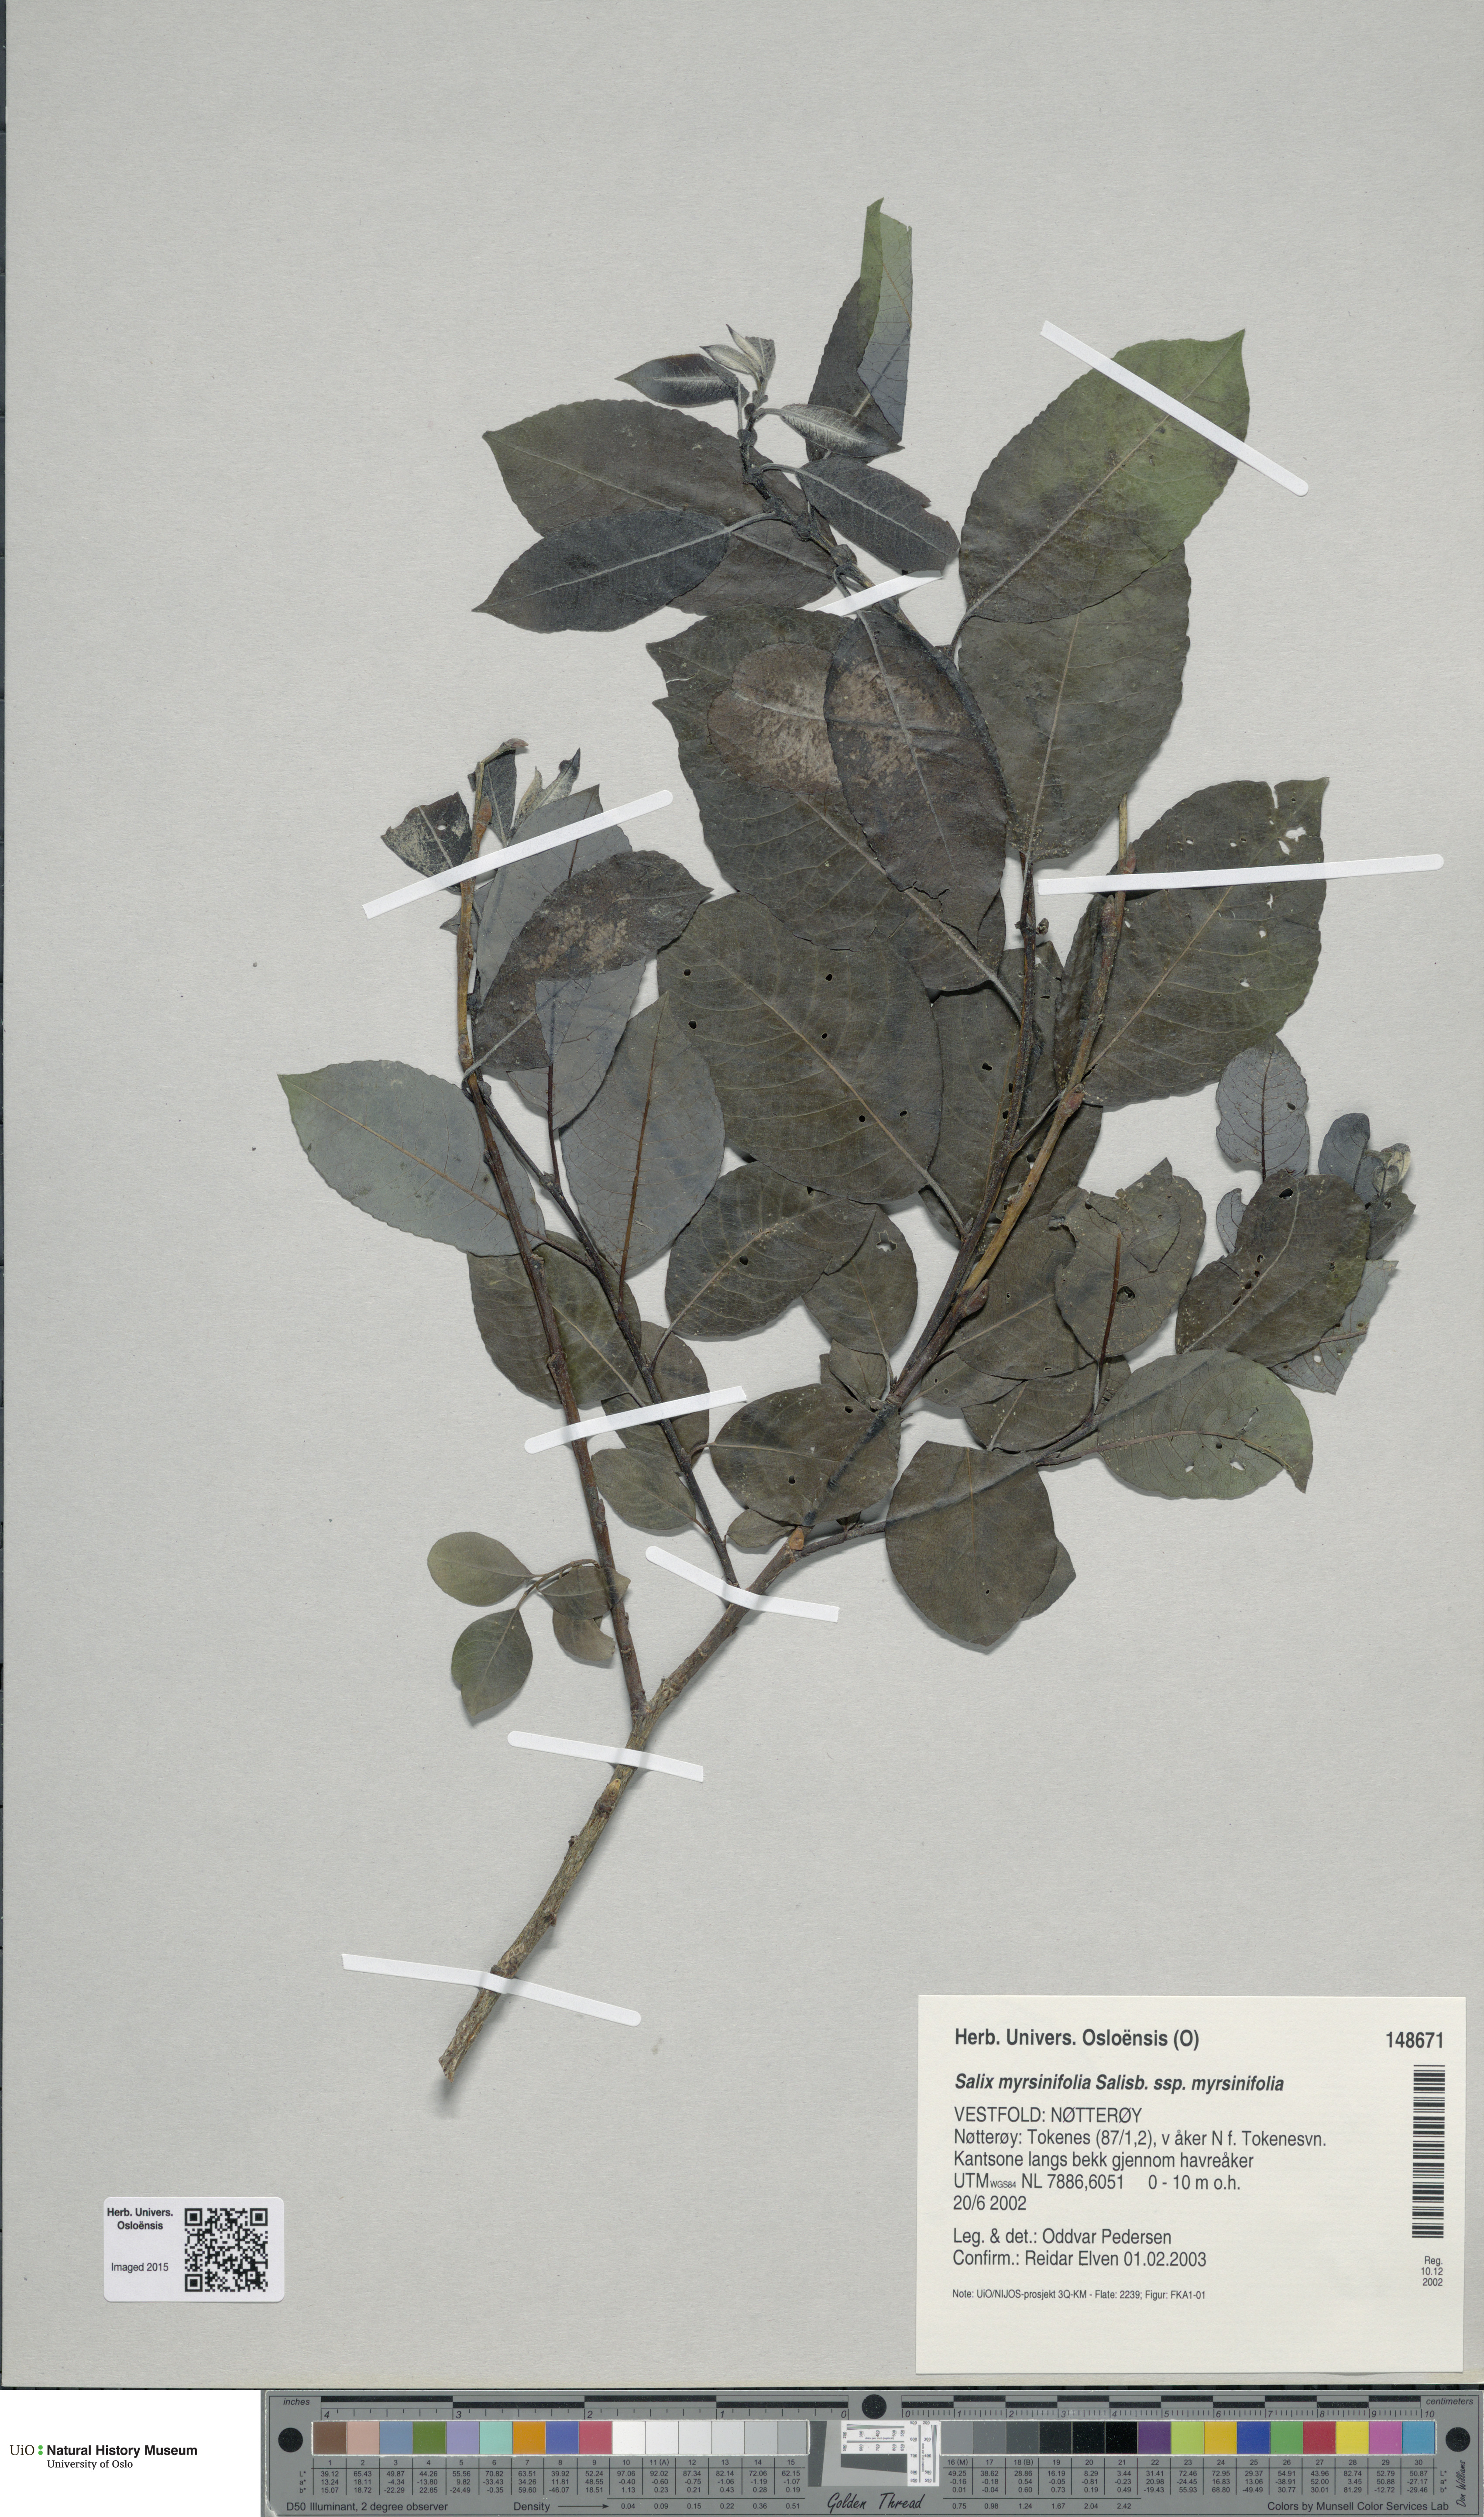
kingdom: Plantae
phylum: Tracheophyta
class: Magnoliopsida
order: Malpighiales
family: Salicaceae
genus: Salix
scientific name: Salix myrsinifolia
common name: Dark-leaved willow
